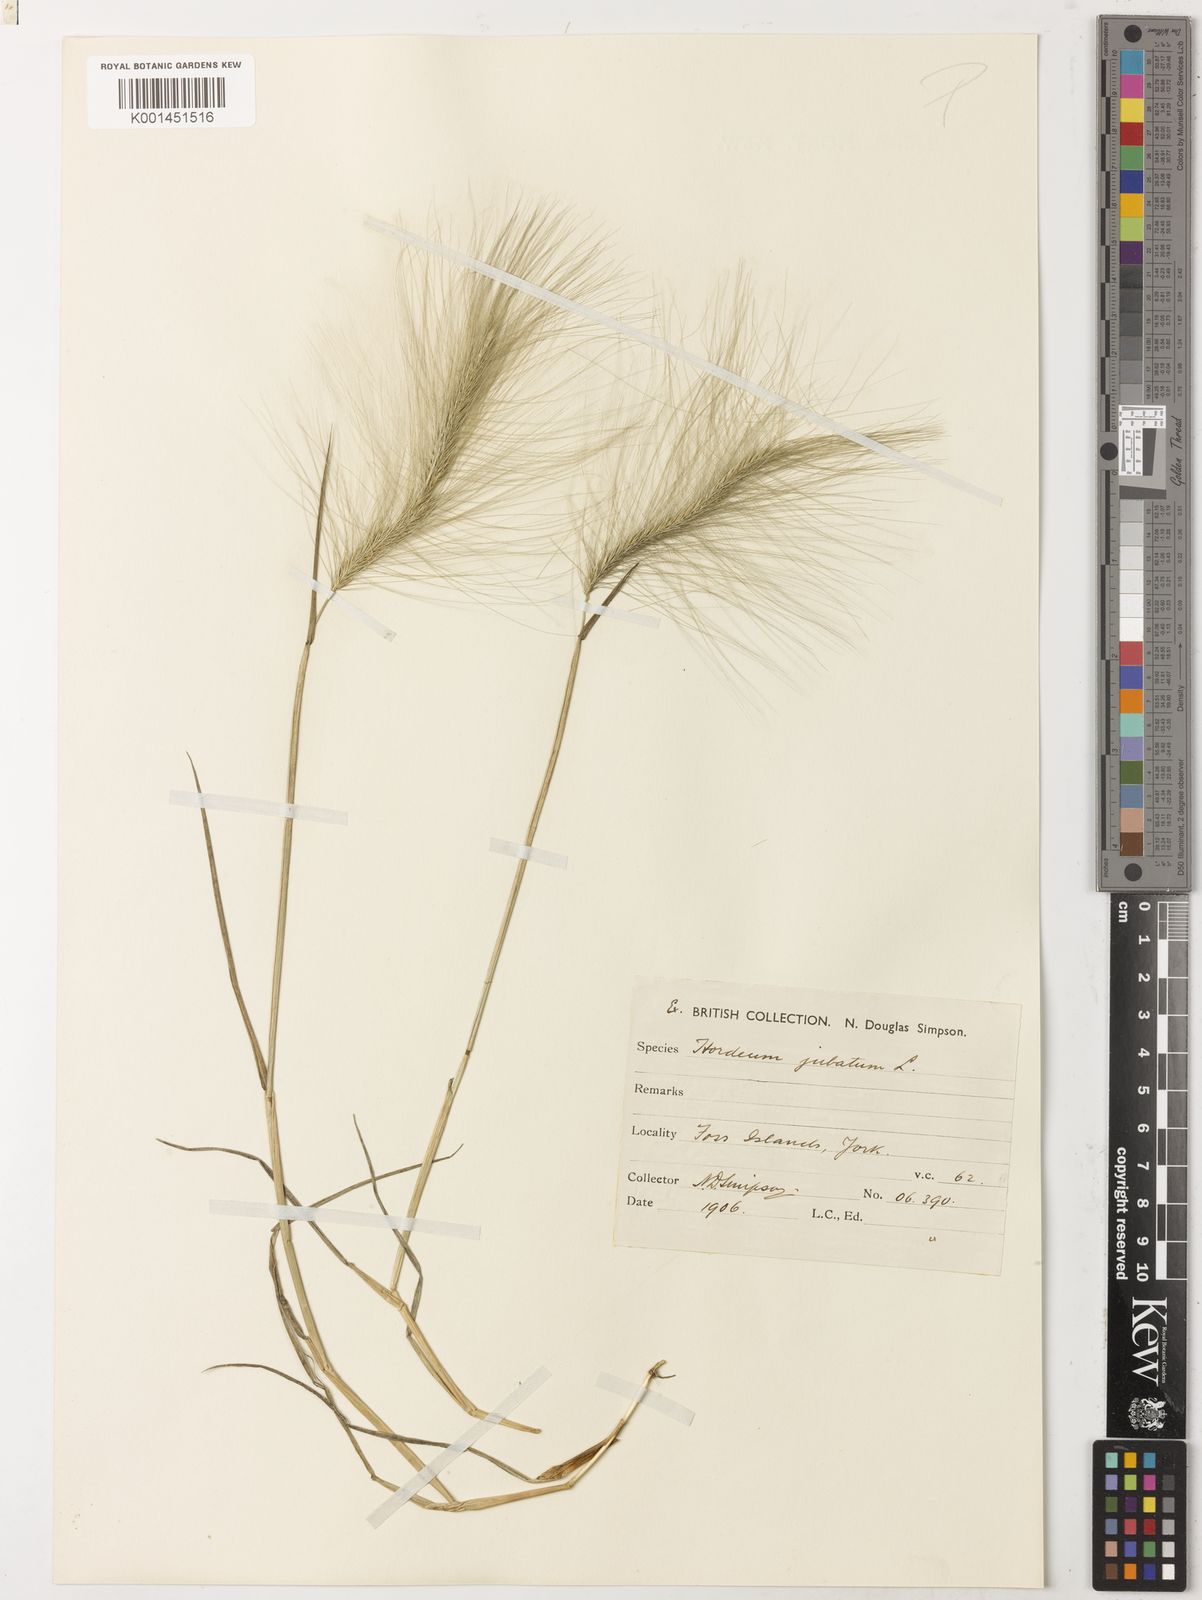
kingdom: Plantae
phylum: Tracheophyta
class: Liliopsida
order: Poales
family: Poaceae
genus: Hordeum
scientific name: Hordeum jubatum
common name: Foxtail barley
